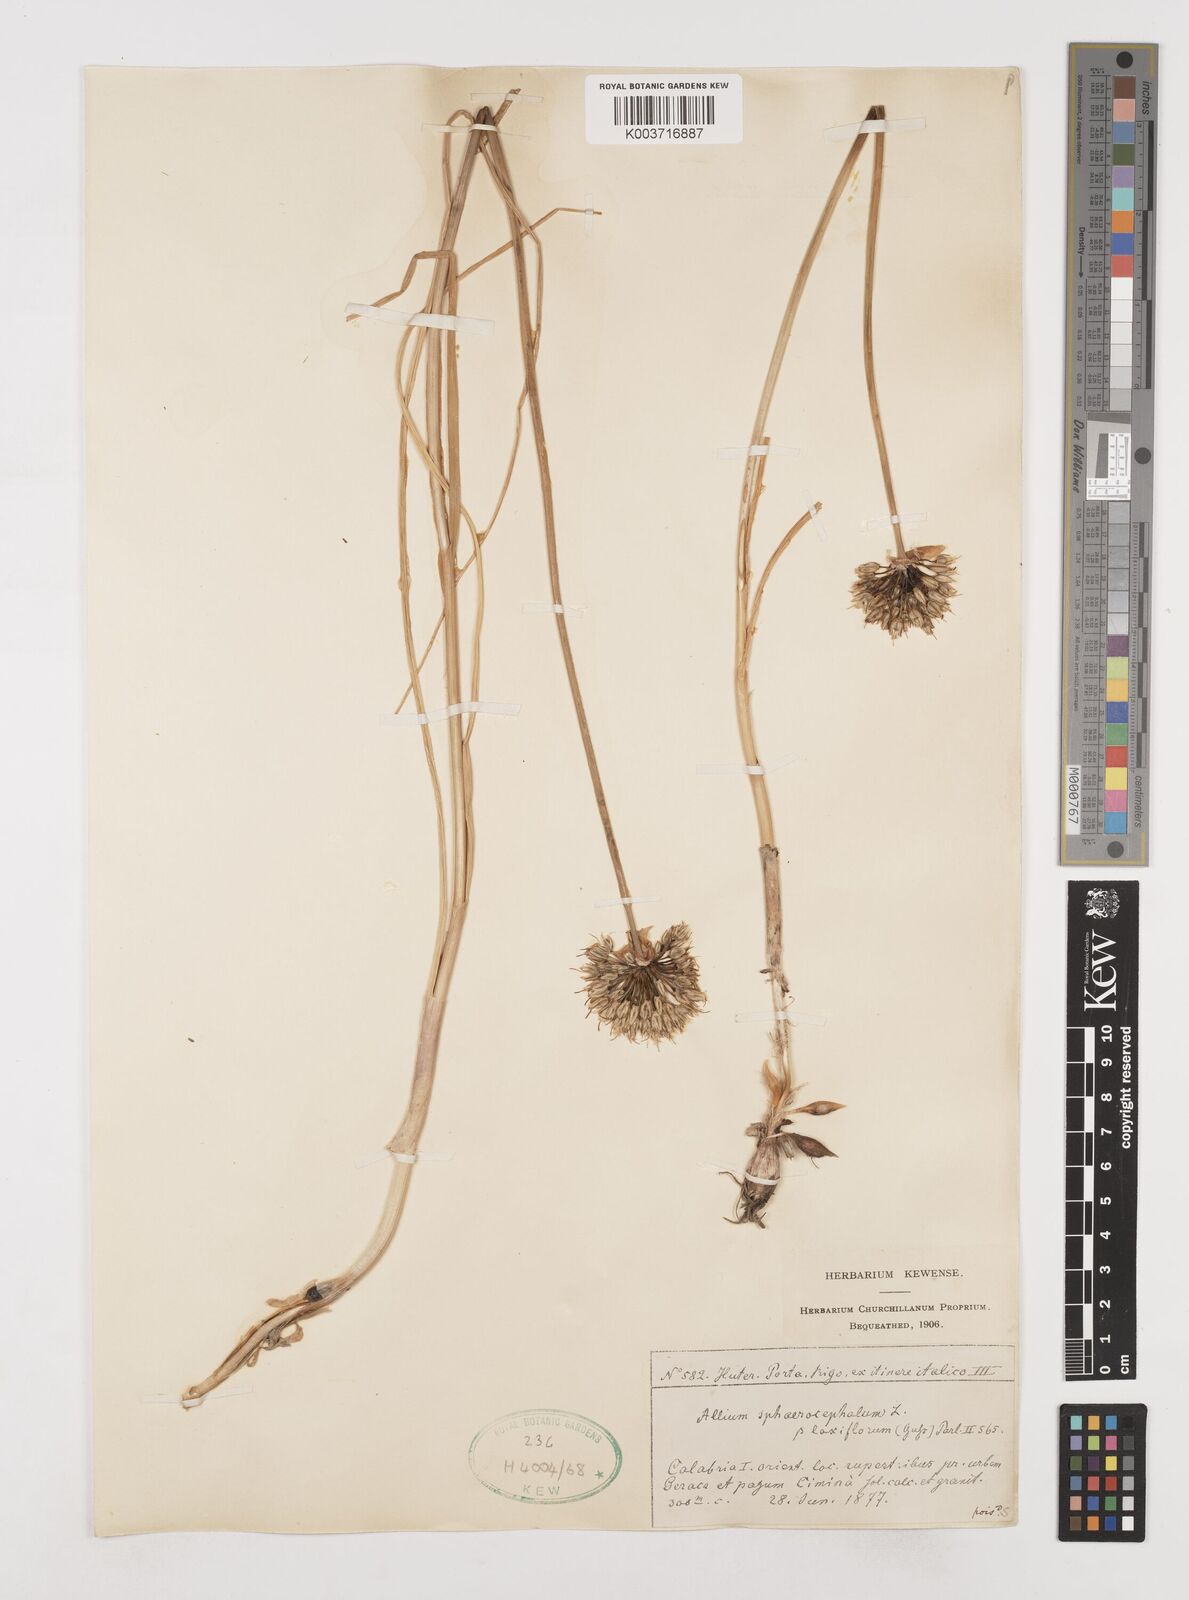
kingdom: Plantae
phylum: Tracheophyta
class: Liliopsida
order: Asparagales
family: Amaryllidaceae
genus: Allium
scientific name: Allium sphaerocephalon
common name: Round-headed leek
